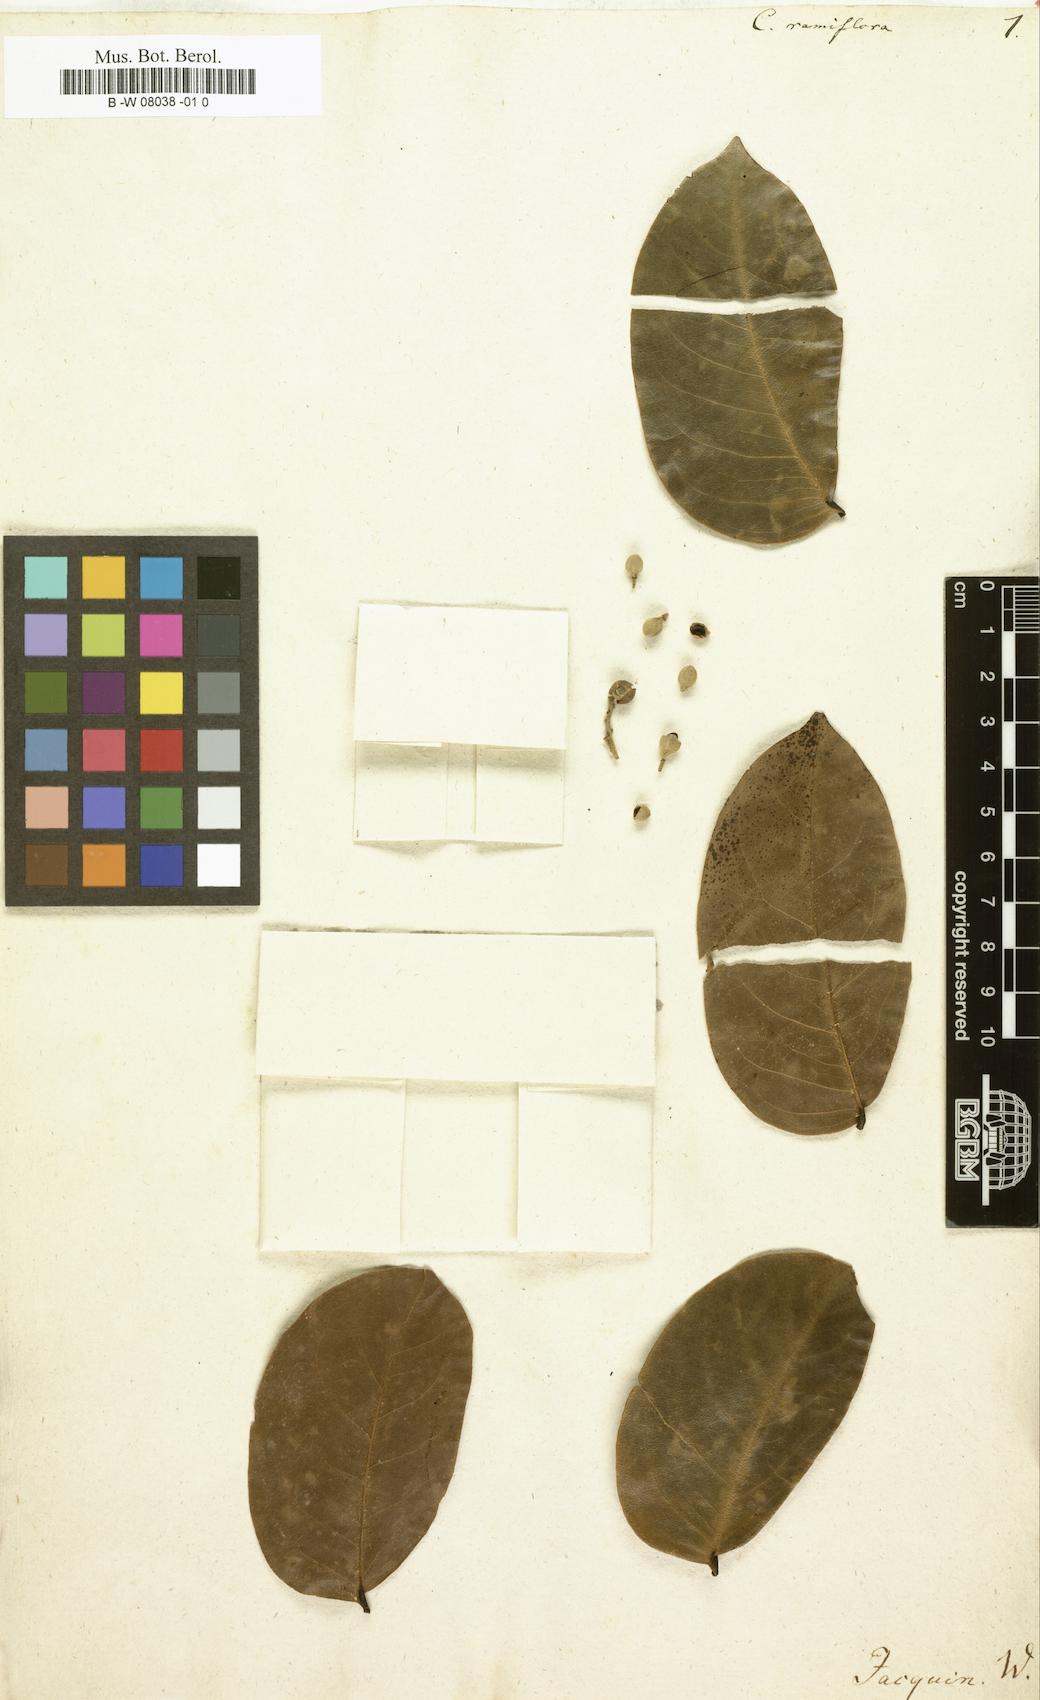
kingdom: Plantae
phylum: Tracheophyta
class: Magnoliopsida
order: Fabales
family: Fabaceae
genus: Cynometra
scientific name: Cynometra ramiflora
